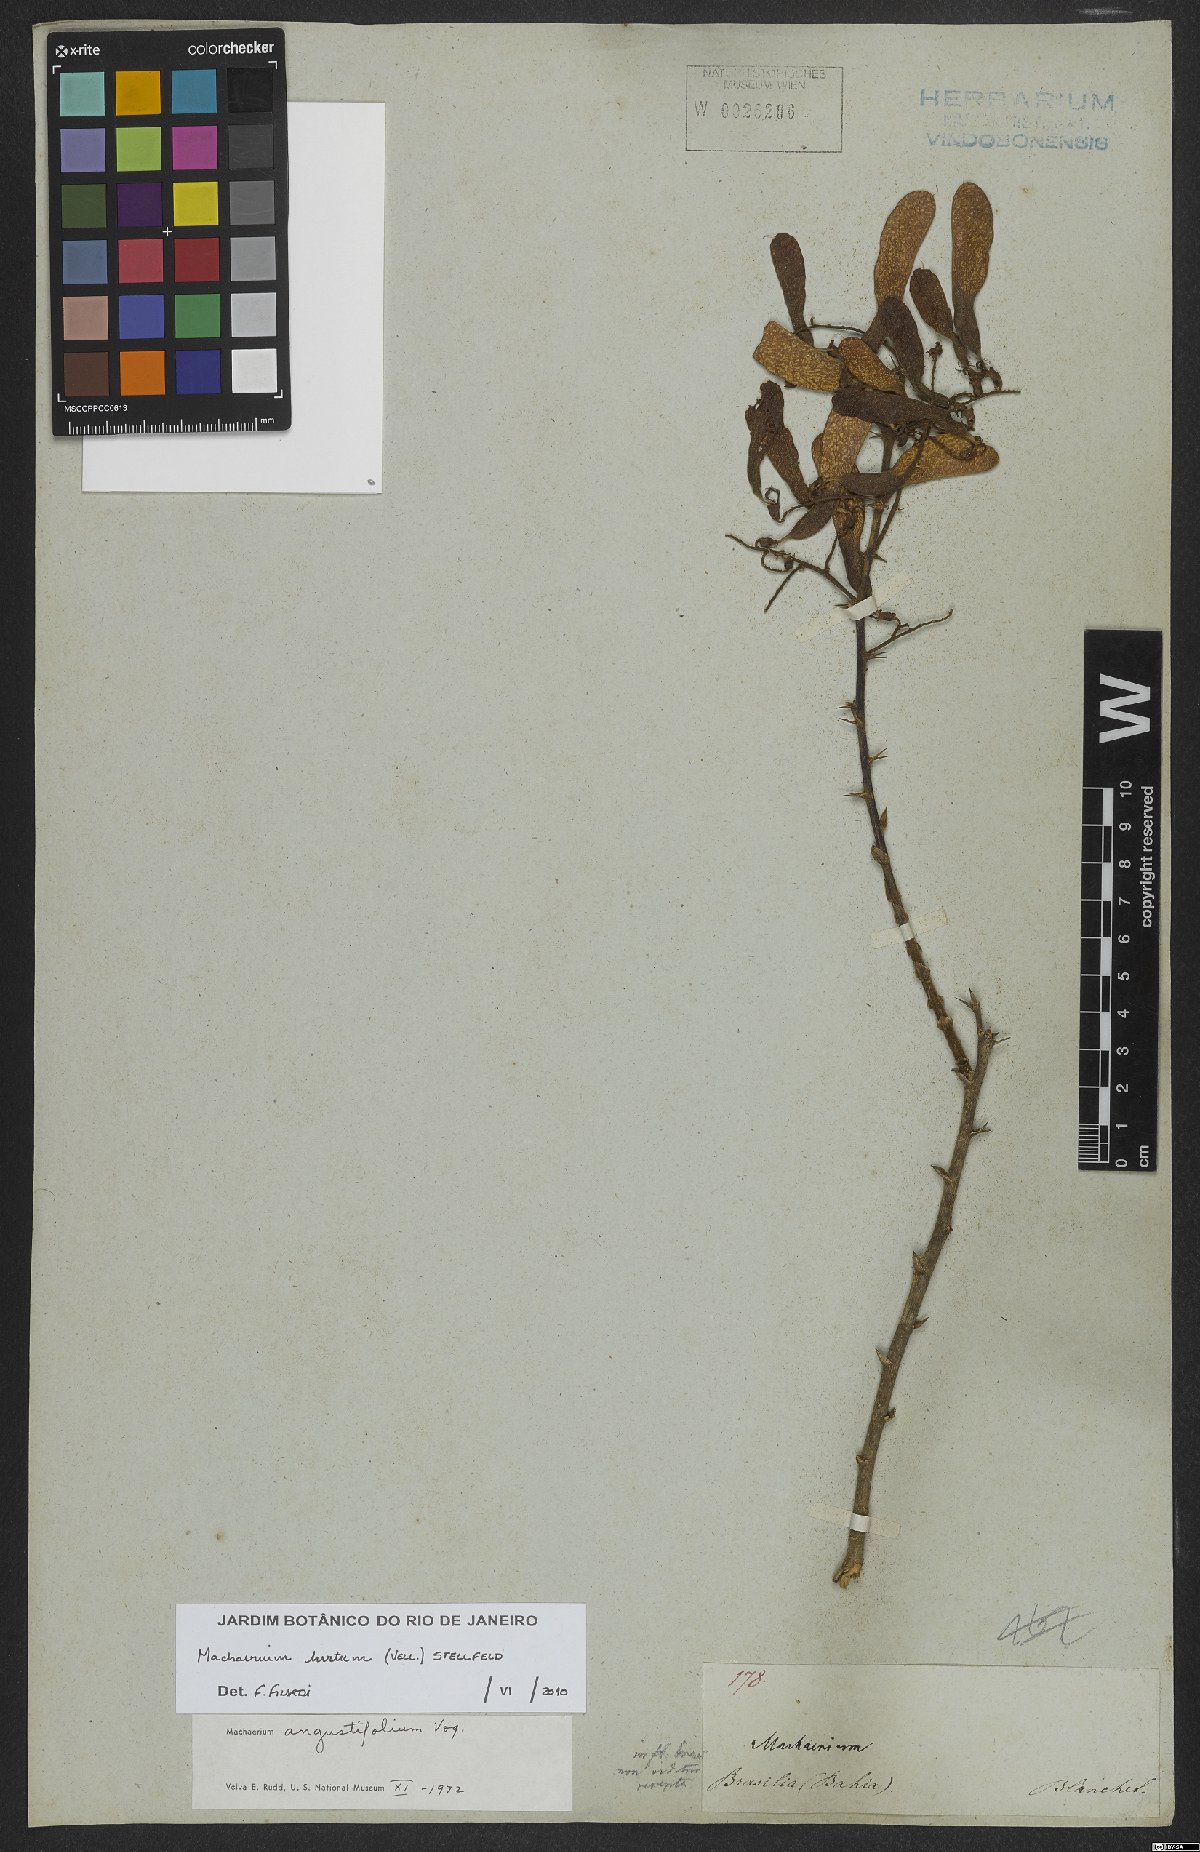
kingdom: Plantae
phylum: Tracheophyta
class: Magnoliopsida
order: Fabales
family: Fabaceae
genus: Machaerium
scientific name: Machaerium hirtum
